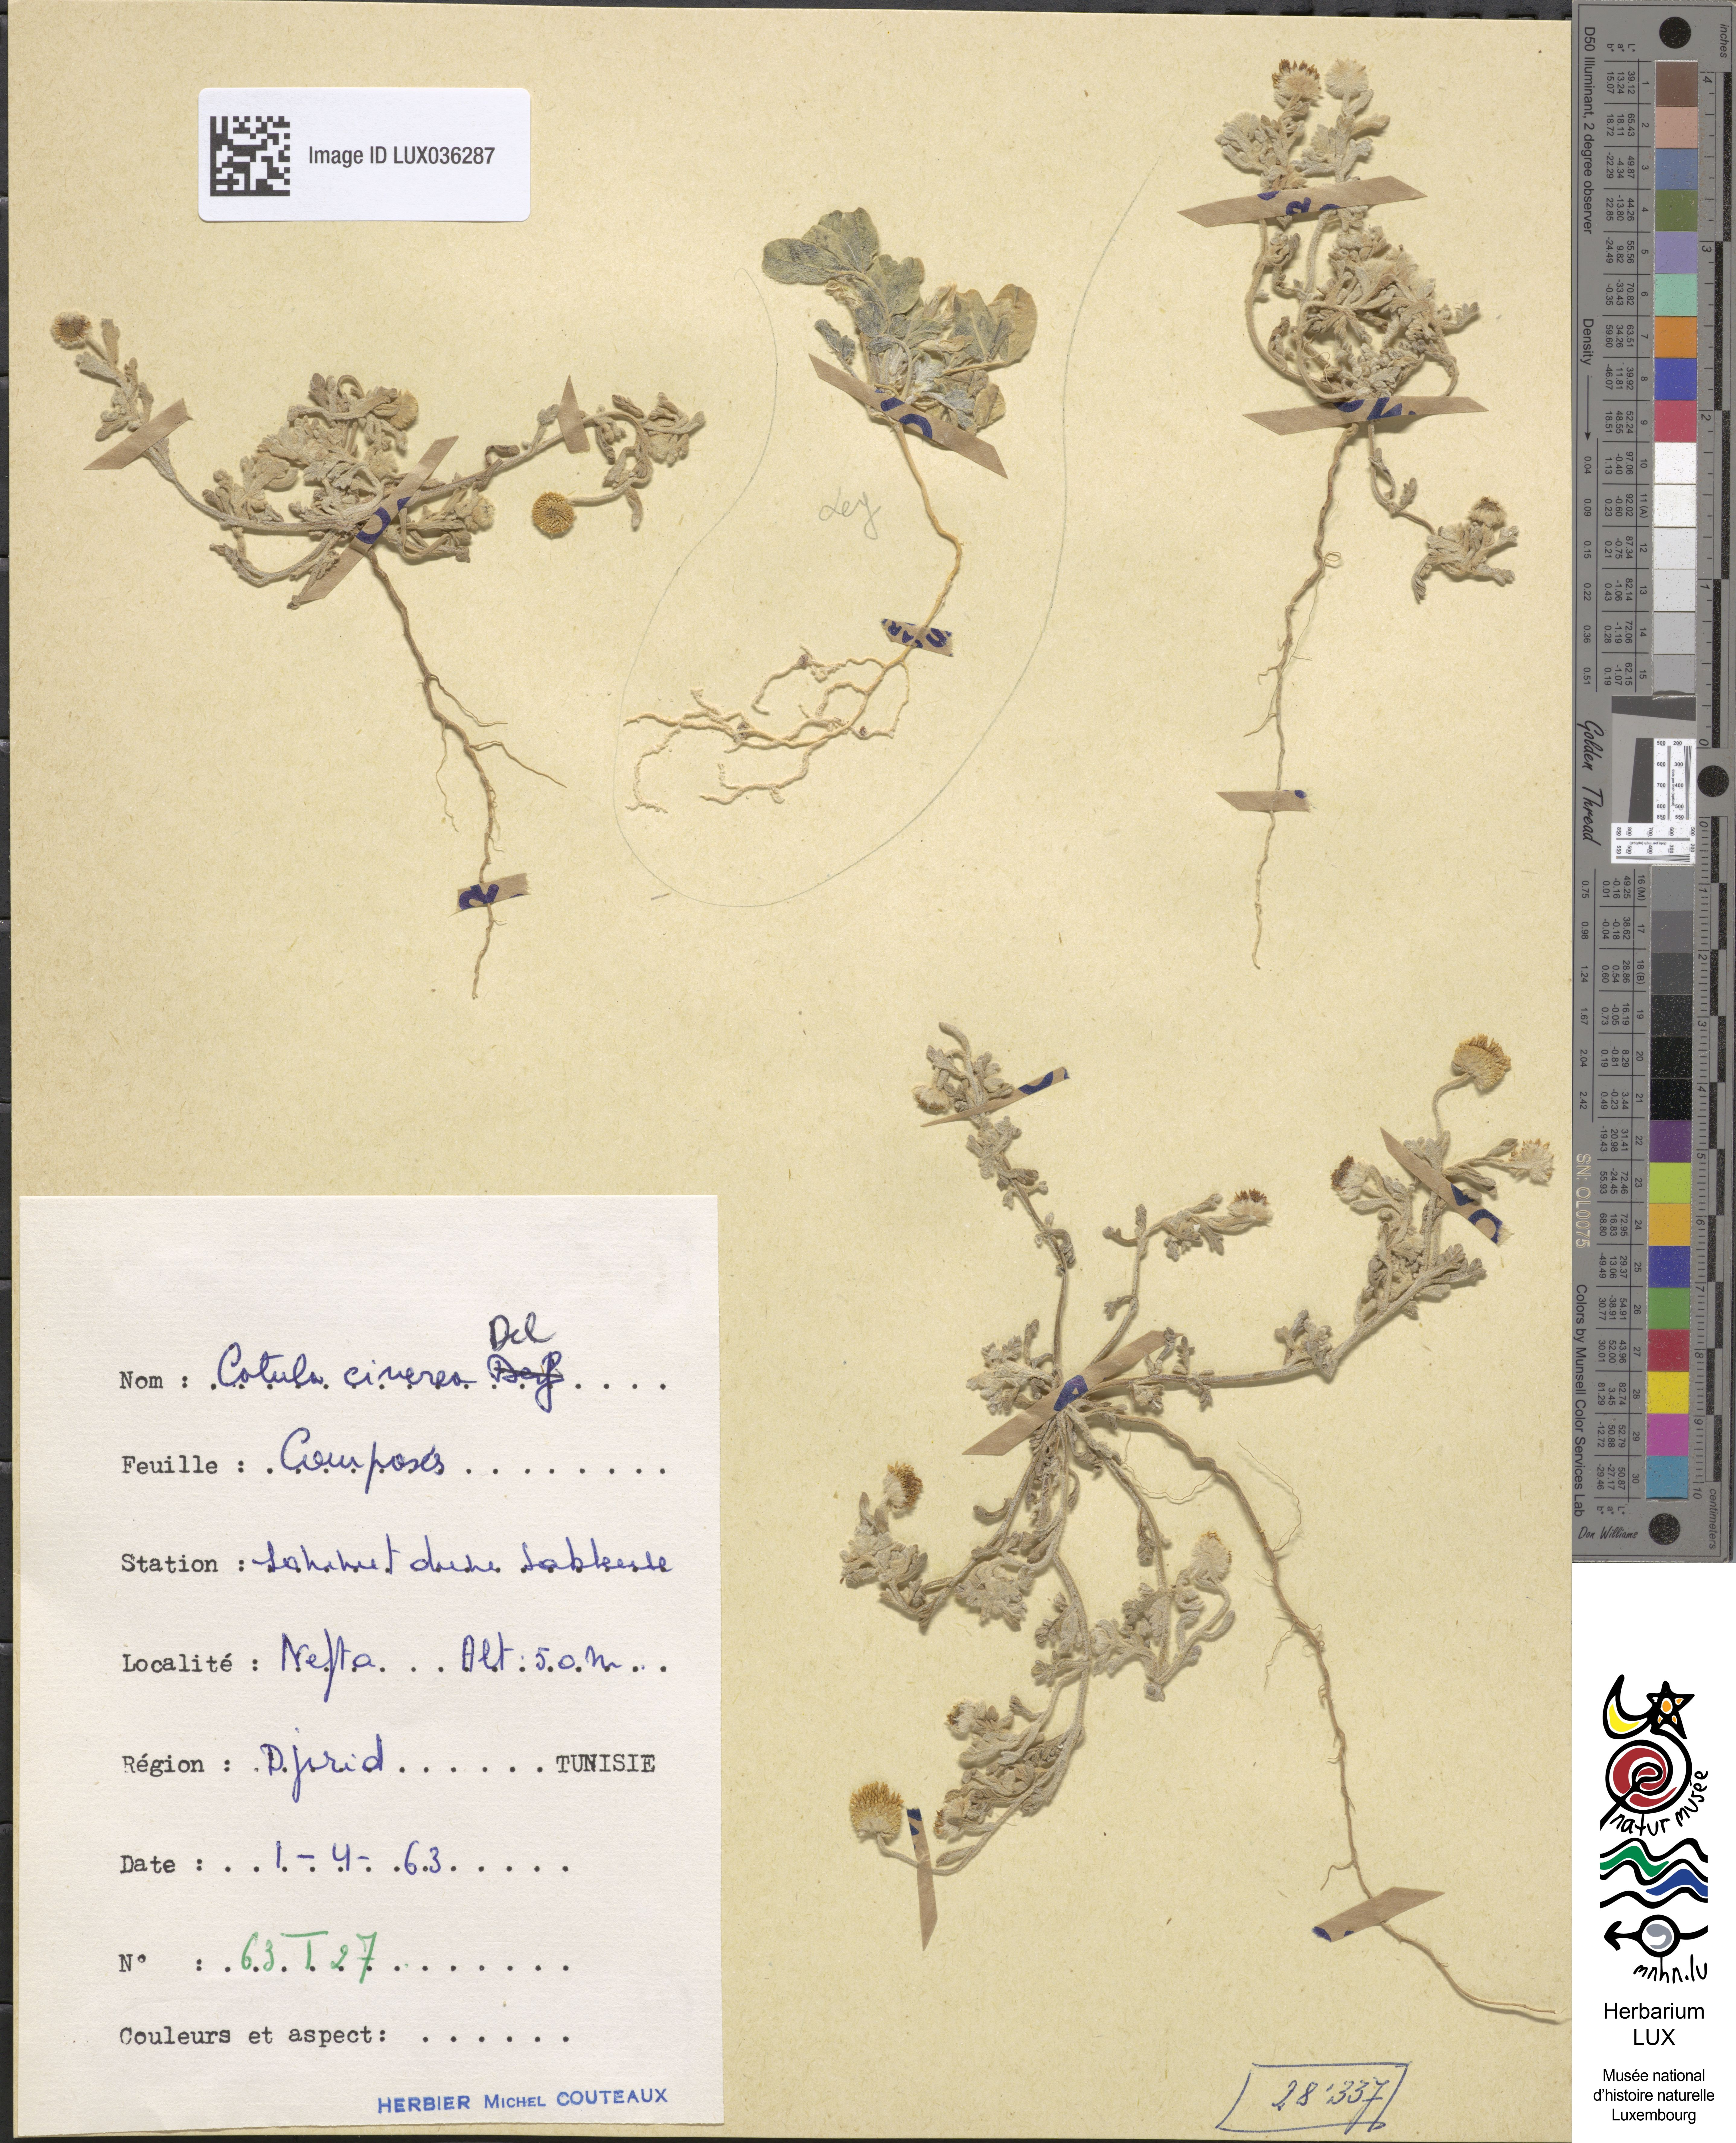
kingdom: Plantae
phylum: Tracheophyta
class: Magnoliopsida
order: Asterales
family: Asteraceae
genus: Brocchia
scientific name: Brocchia cinerea
